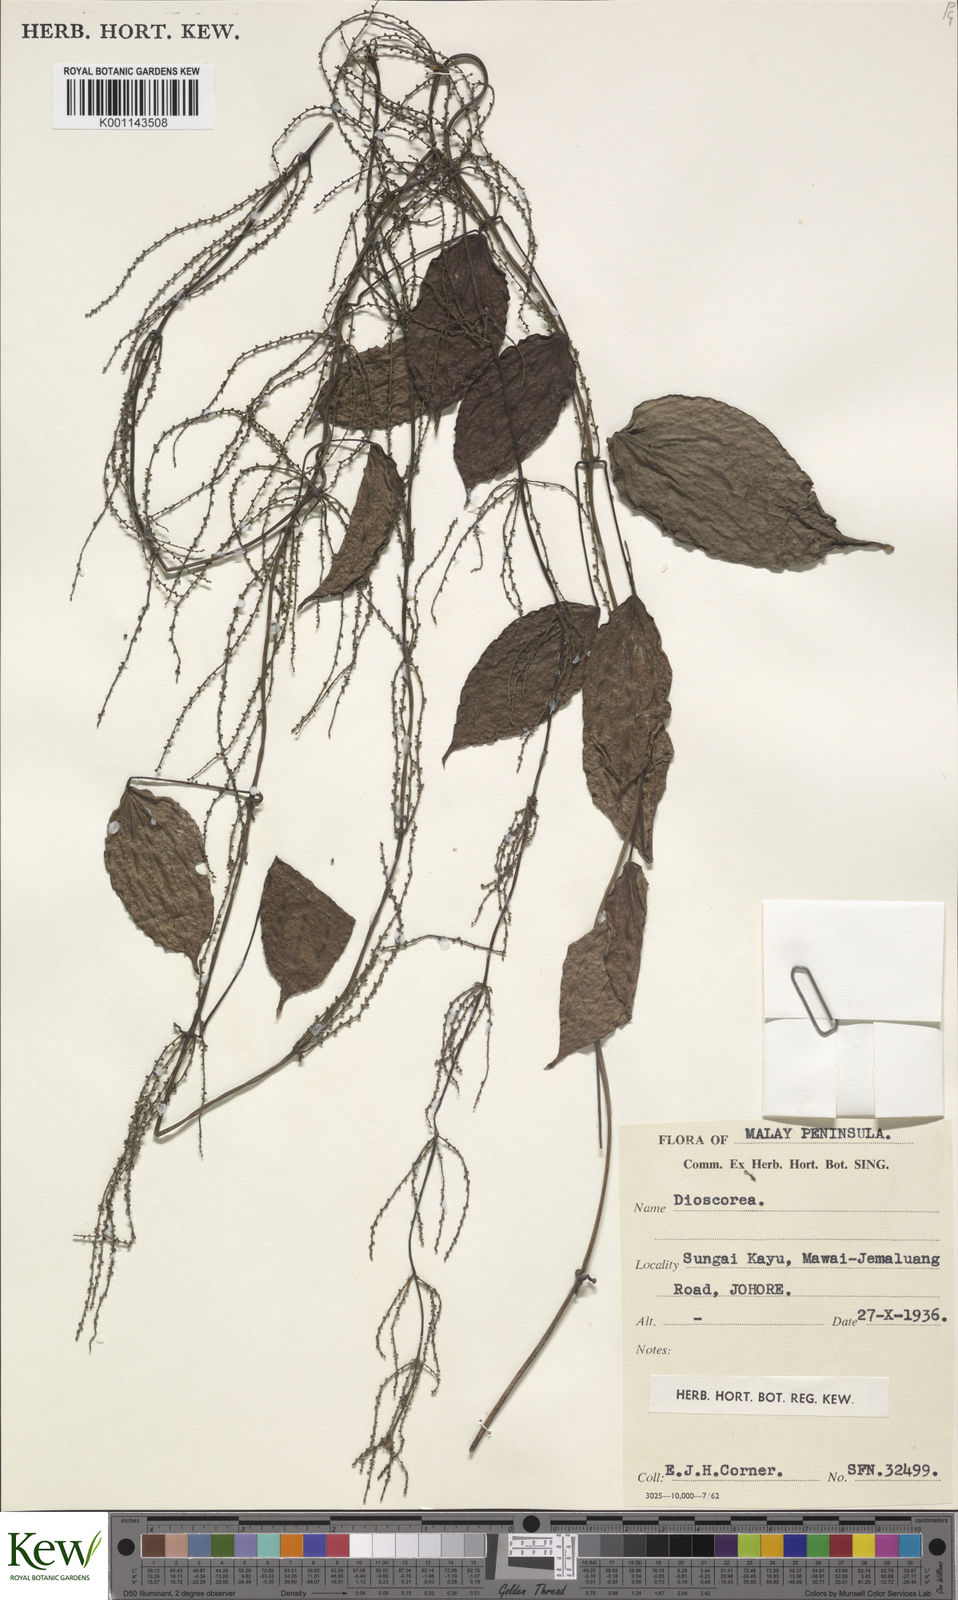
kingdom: Plantae
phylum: Tracheophyta
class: Liliopsida
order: Dioscoreales
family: Dioscoreaceae
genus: Dioscorea
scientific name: Dioscorea
